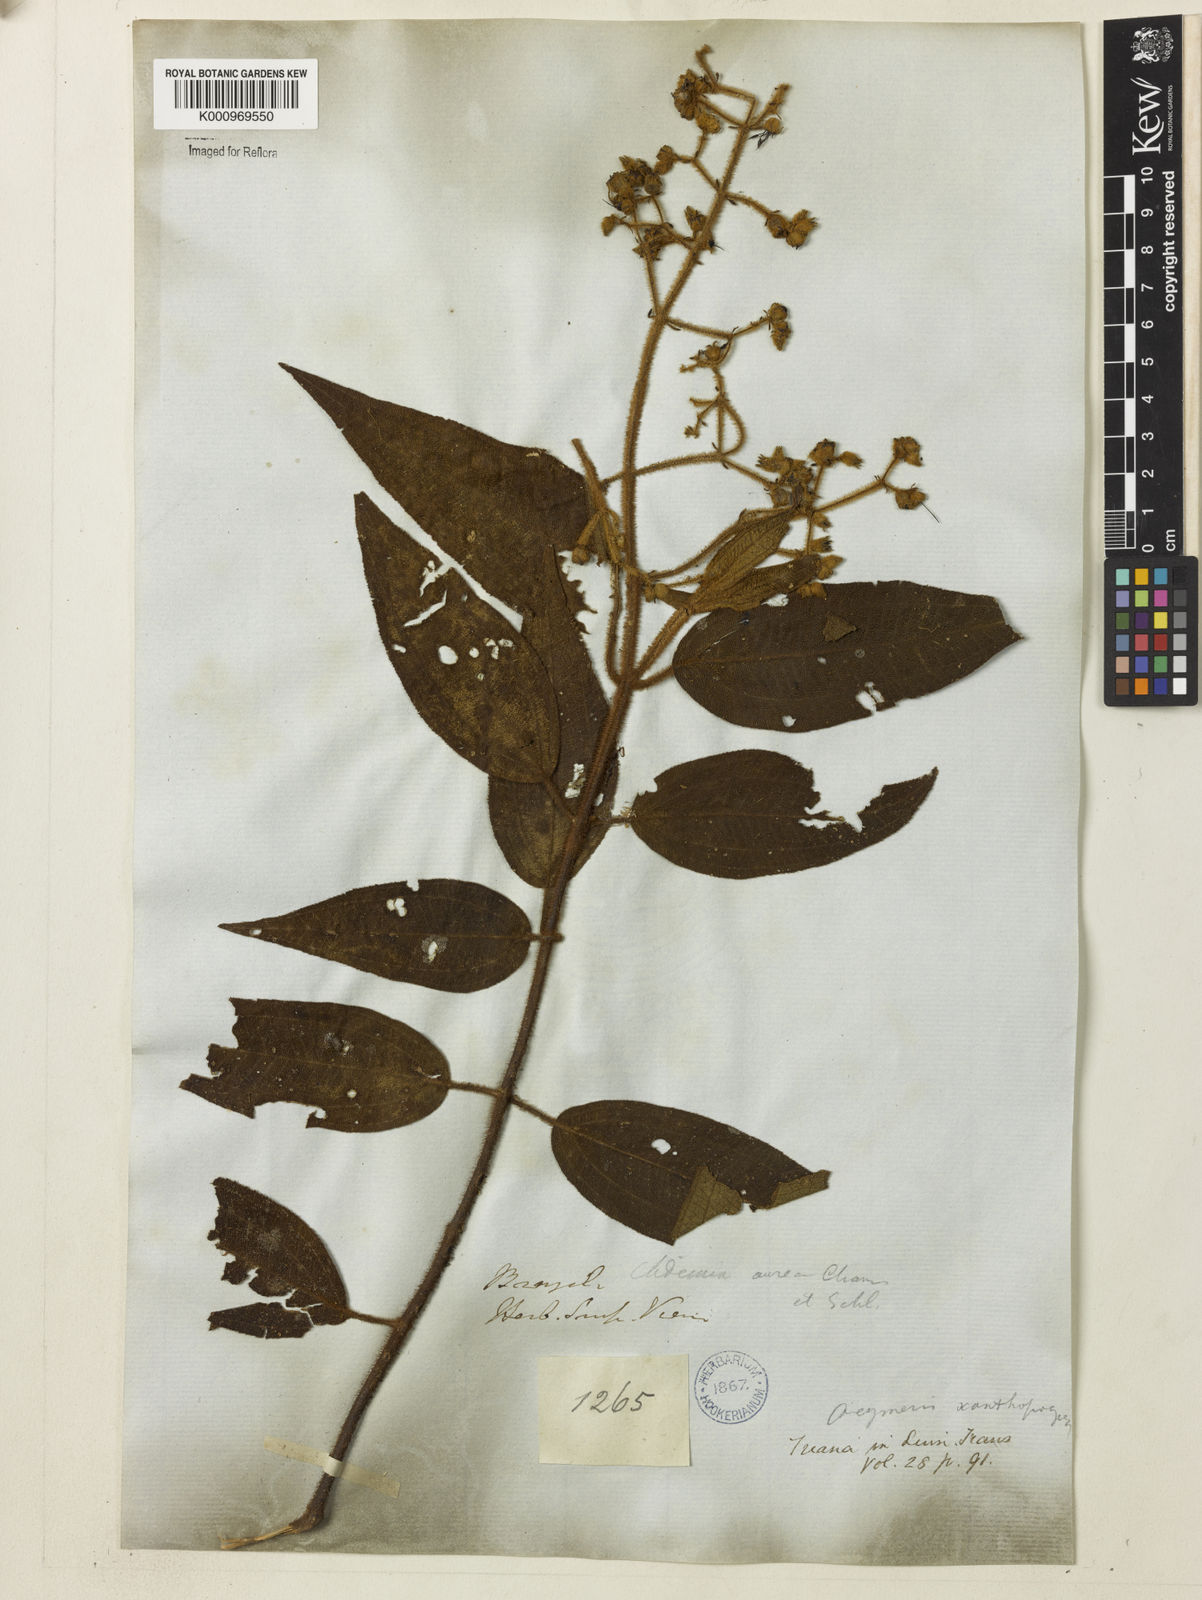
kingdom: Plantae
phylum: Tracheophyta
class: Magnoliopsida
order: Myrtales
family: Melastomataceae
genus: Miconia
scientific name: Miconia xanthopogon
